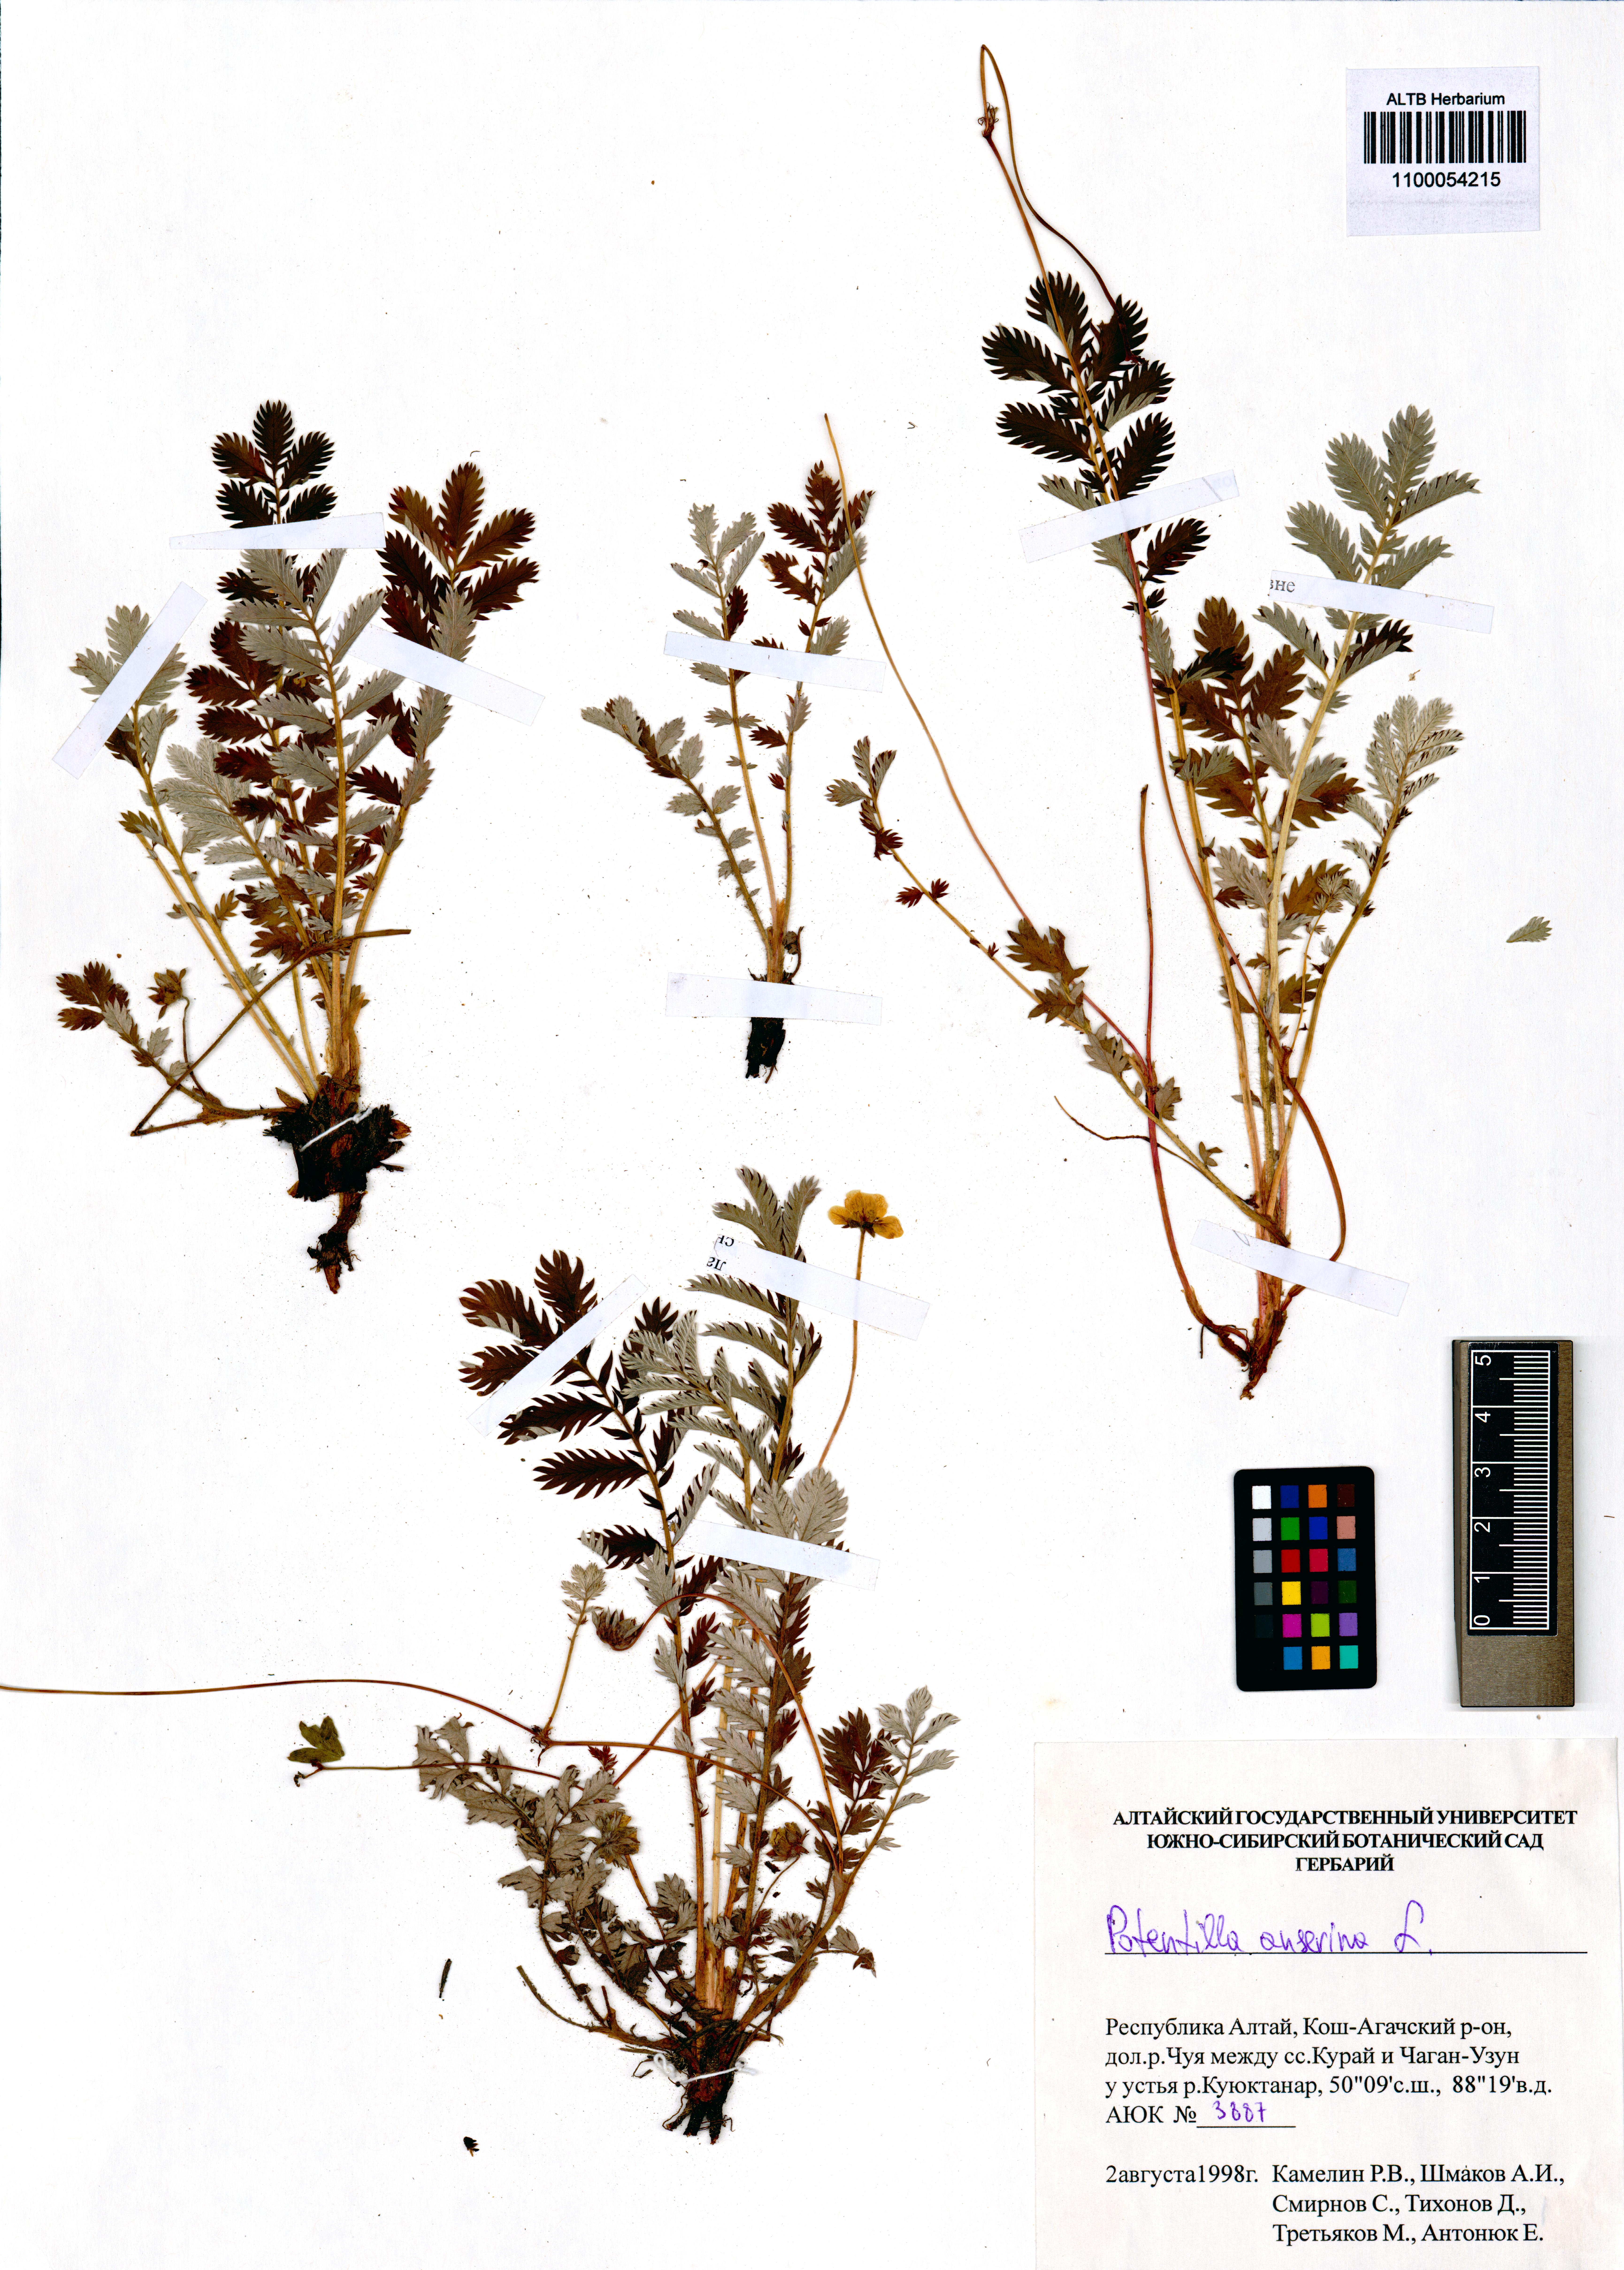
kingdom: Plantae
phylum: Tracheophyta
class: Magnoliopsida
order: Rosales
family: Rosaceae
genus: Argentina
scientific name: Argentina anserina
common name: Common silverweed
